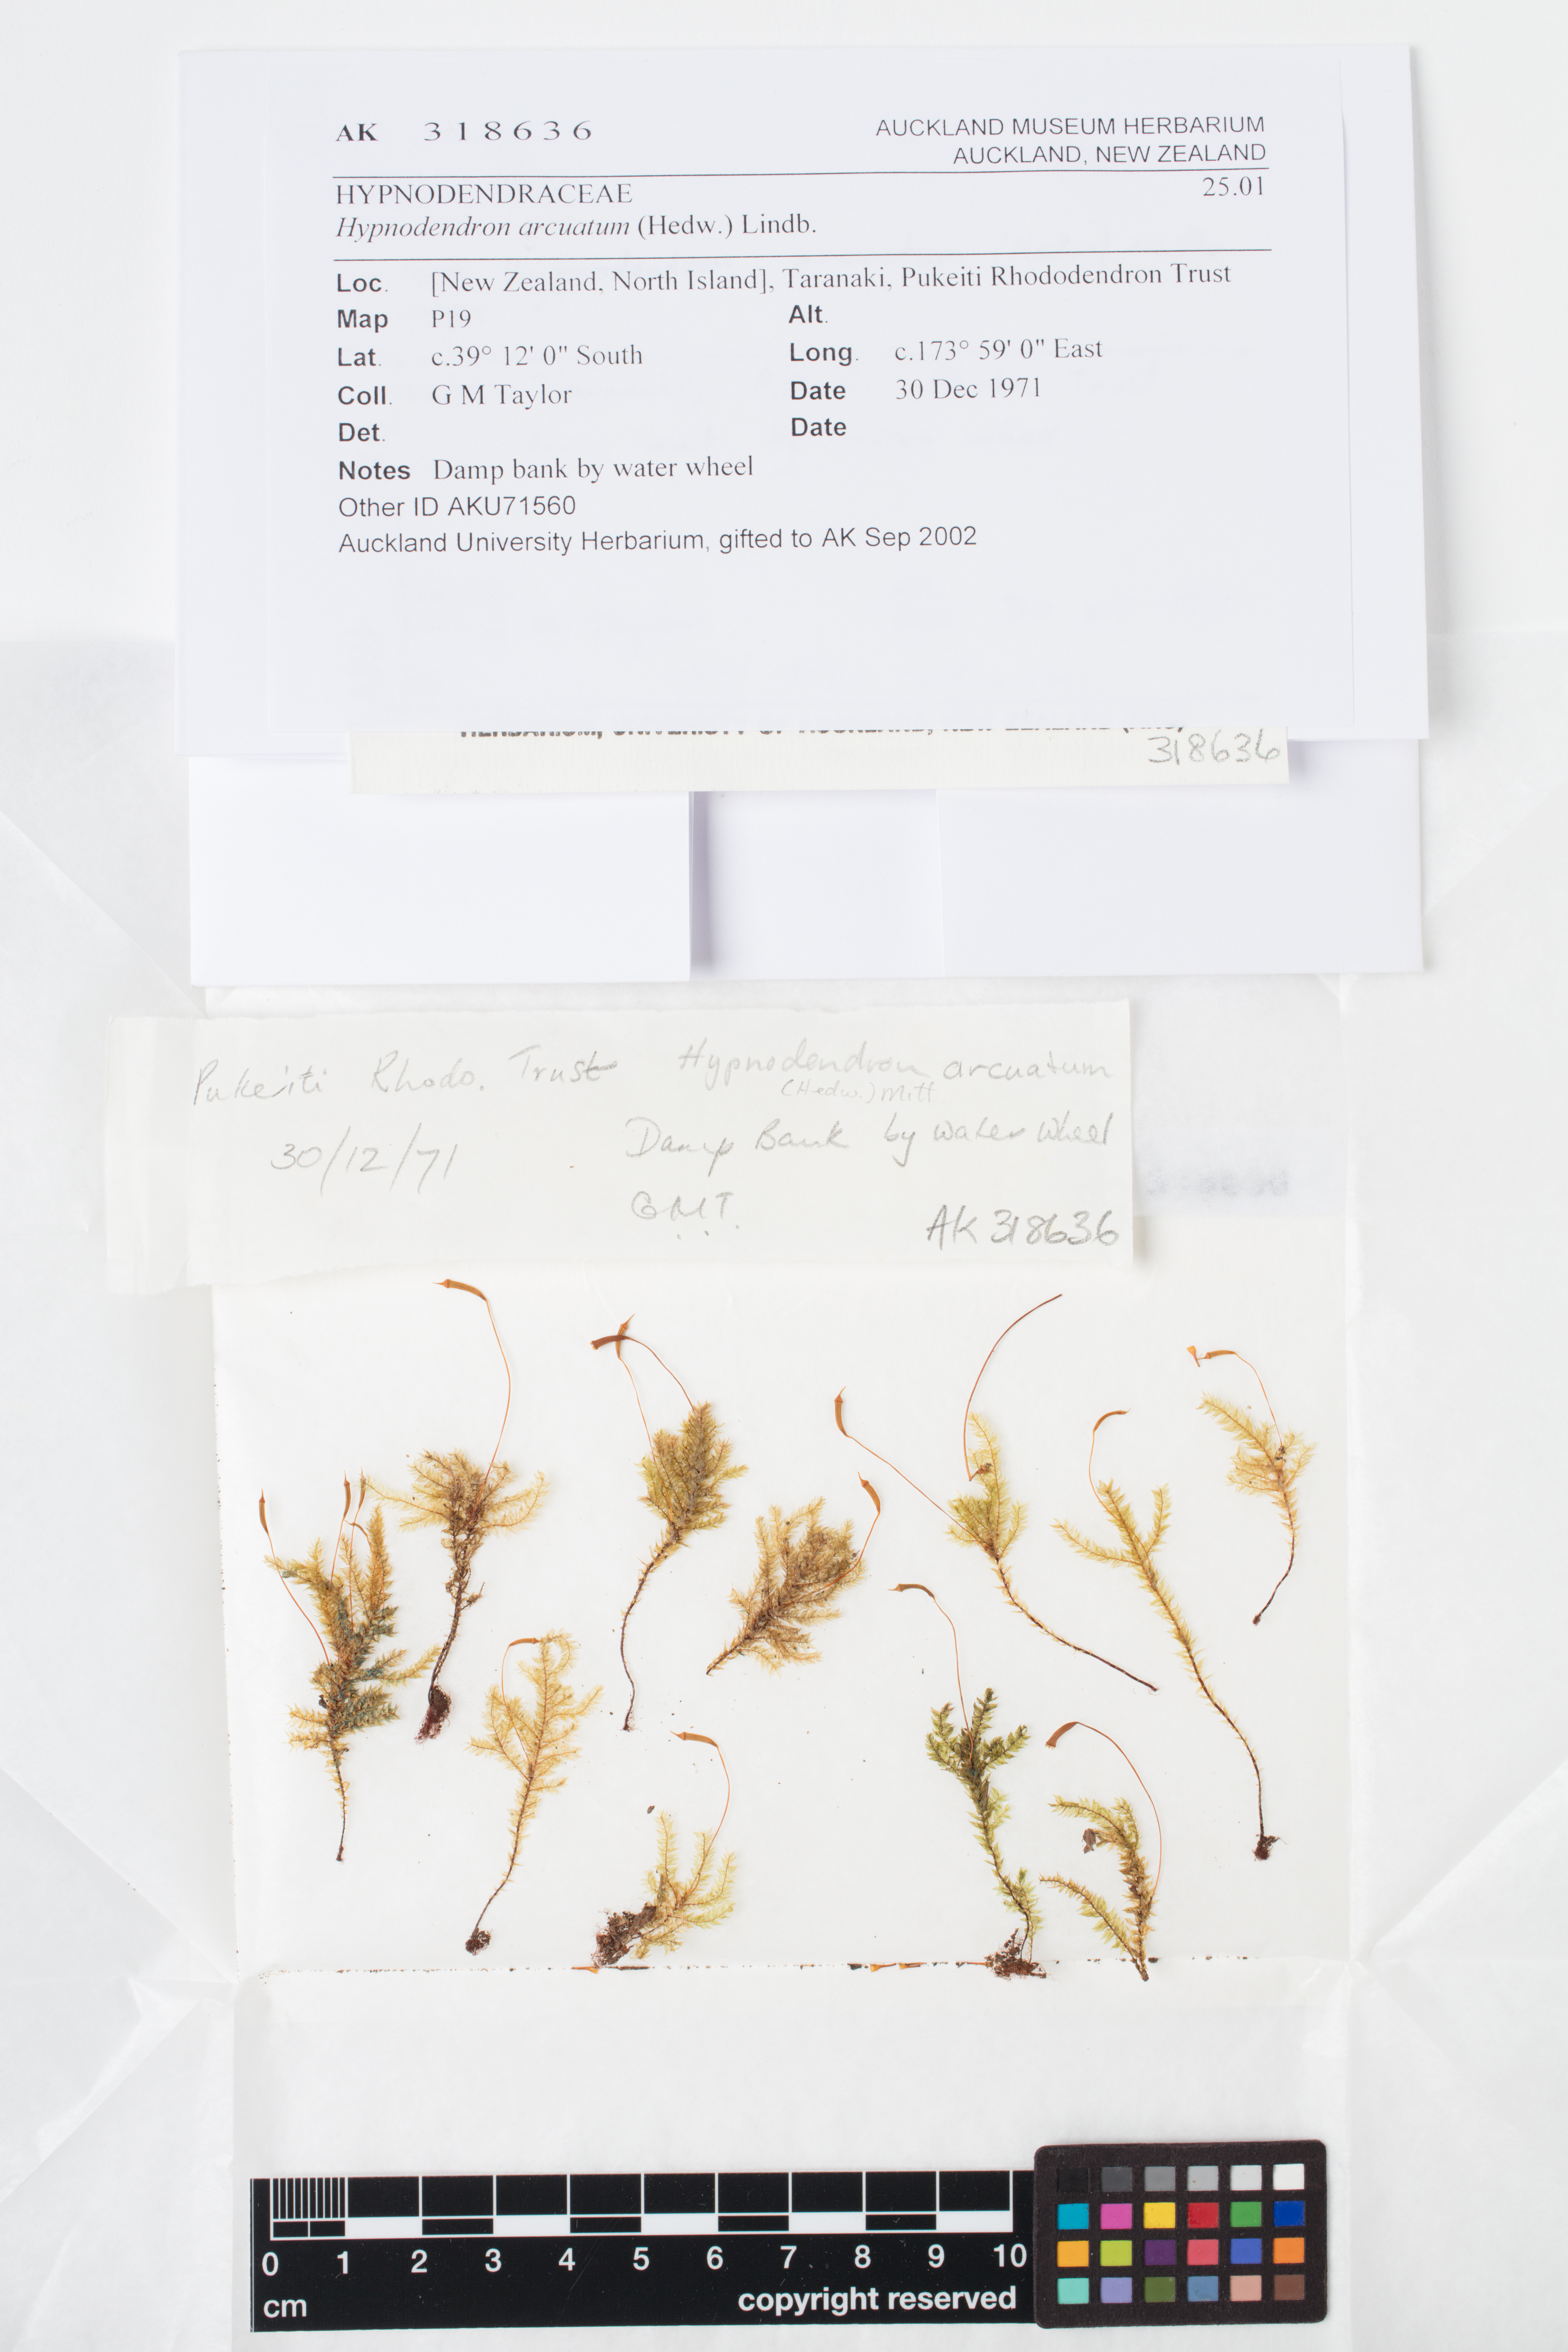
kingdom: Plantae
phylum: Bryophyta
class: Bryopsida
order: Hypnodendrales
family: Spiridentaceae
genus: Hypnodendron
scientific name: Hypnodendron arcuatum
